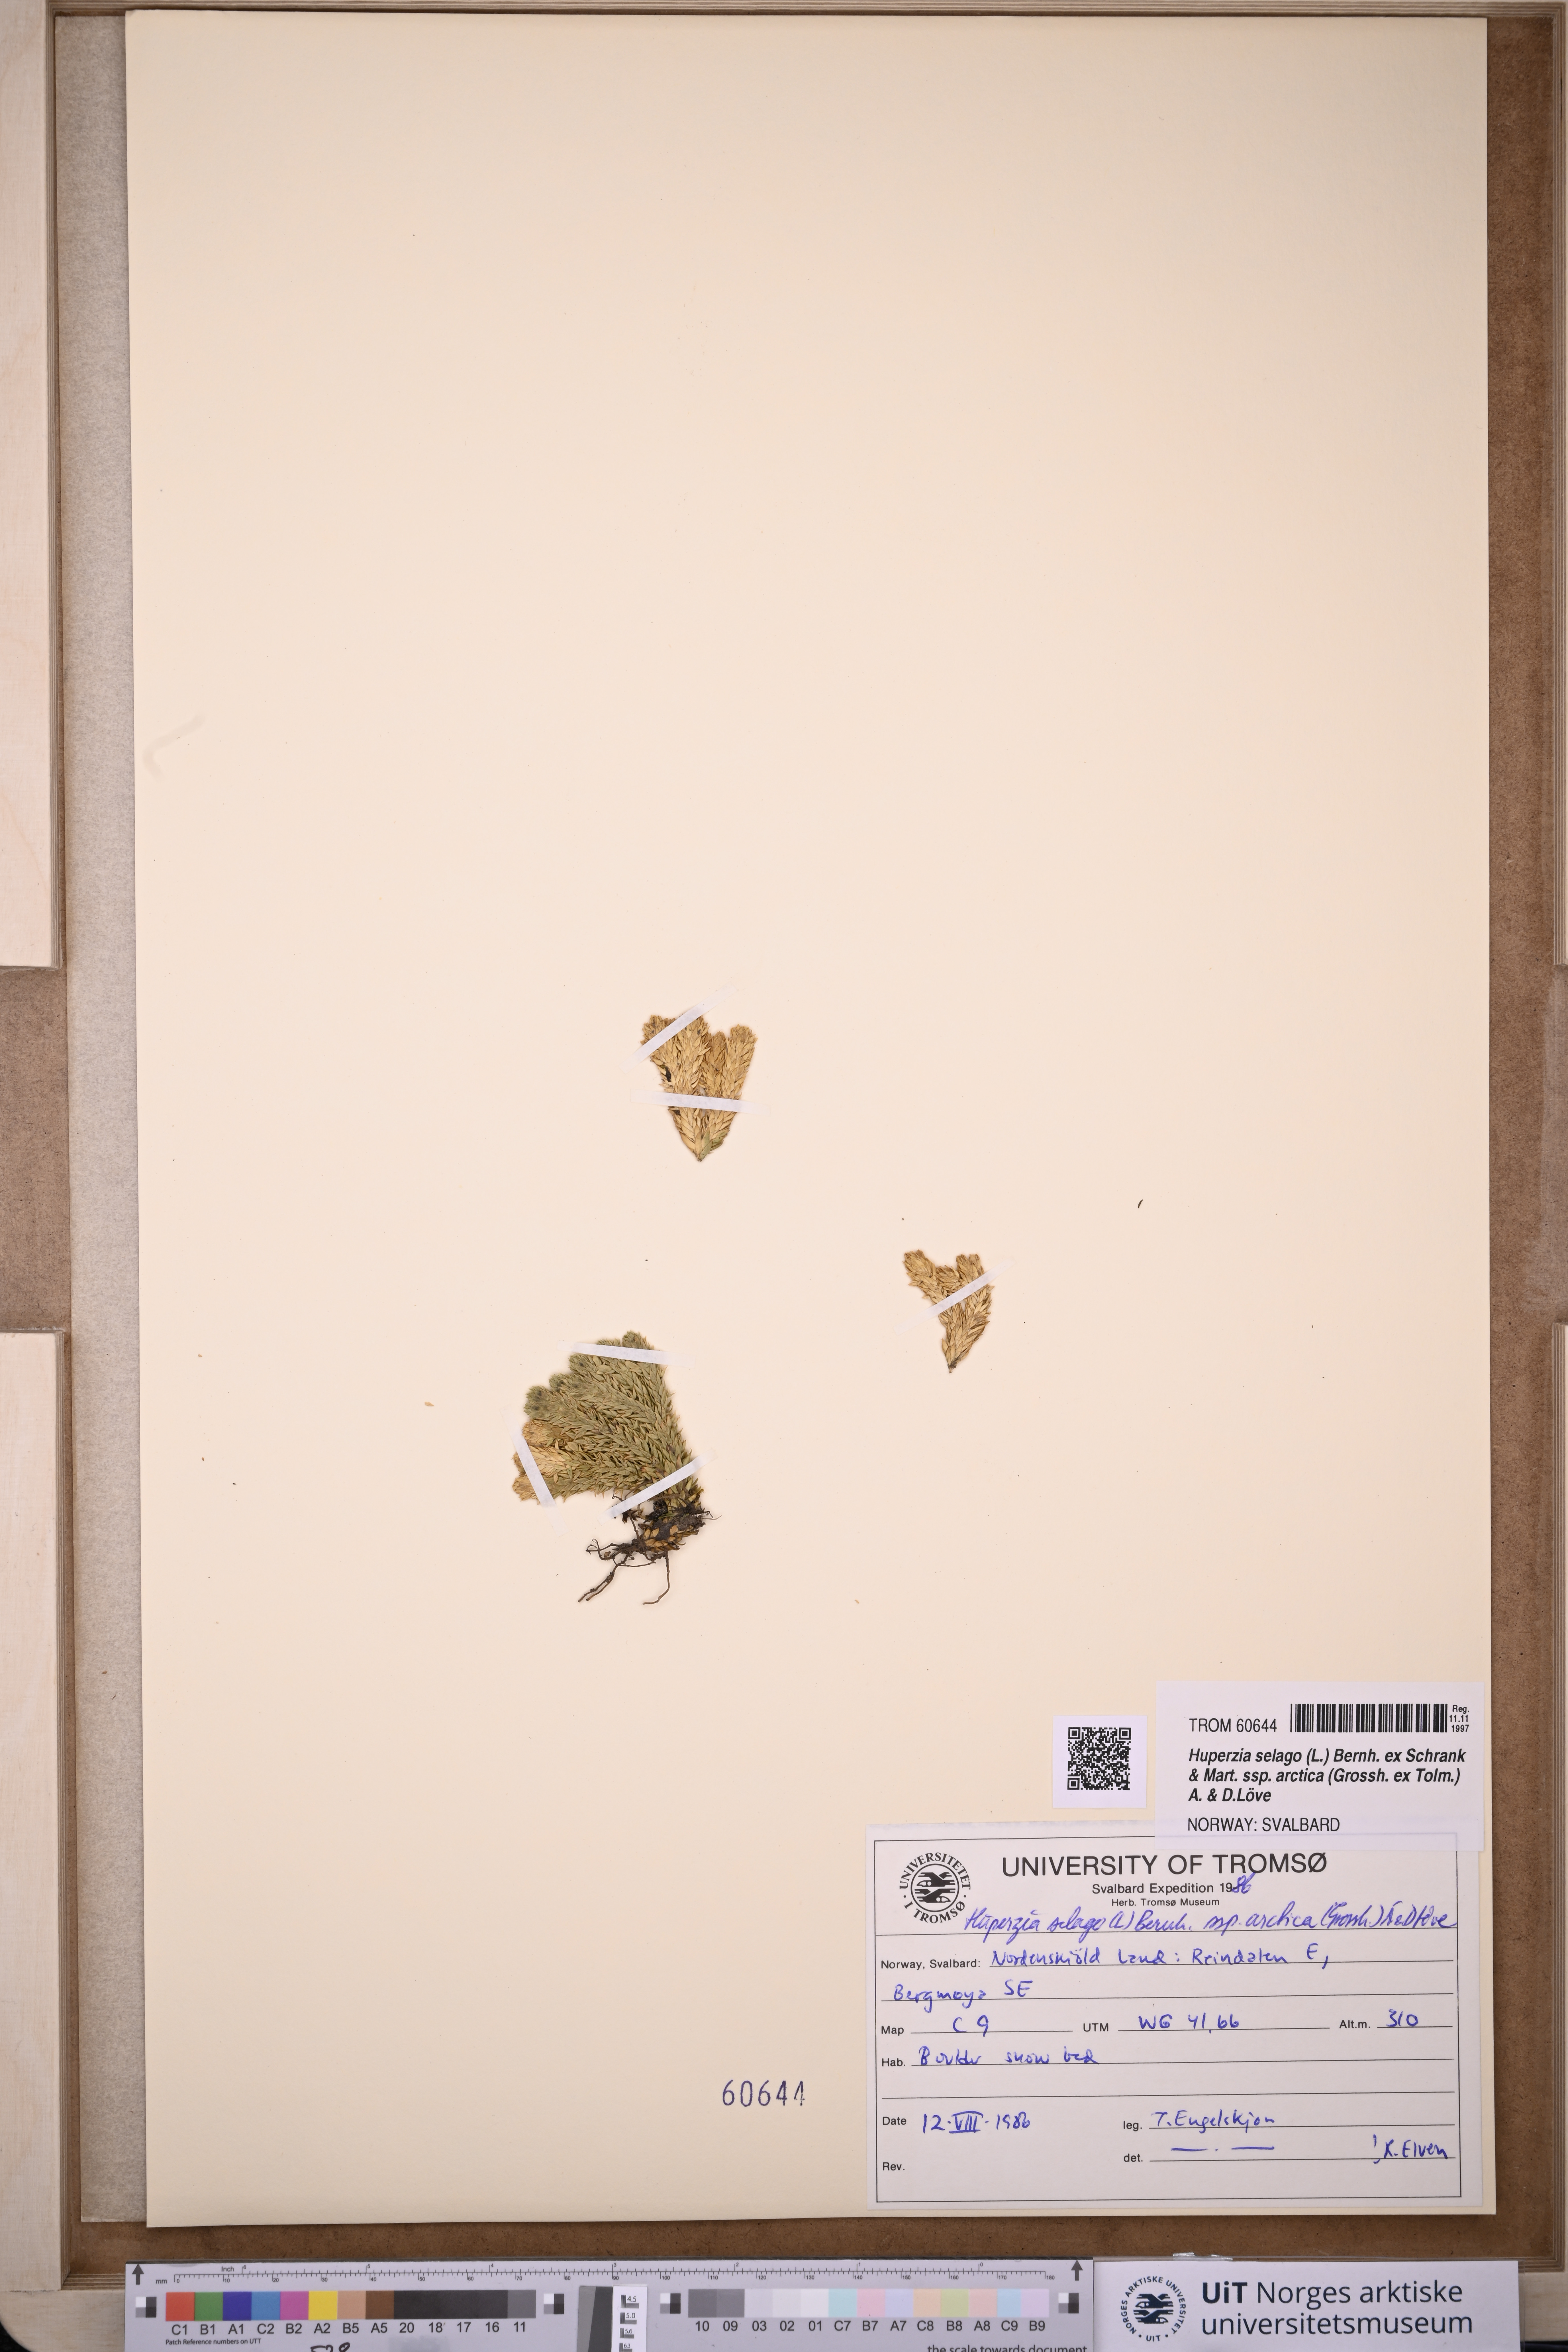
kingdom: Plantae
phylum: Tracheophyta
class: Lycopodiopsida
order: Lycopodiales
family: Lycopodiaceae
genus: Huperzia
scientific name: Huperzia selago
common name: Northern firmoss
